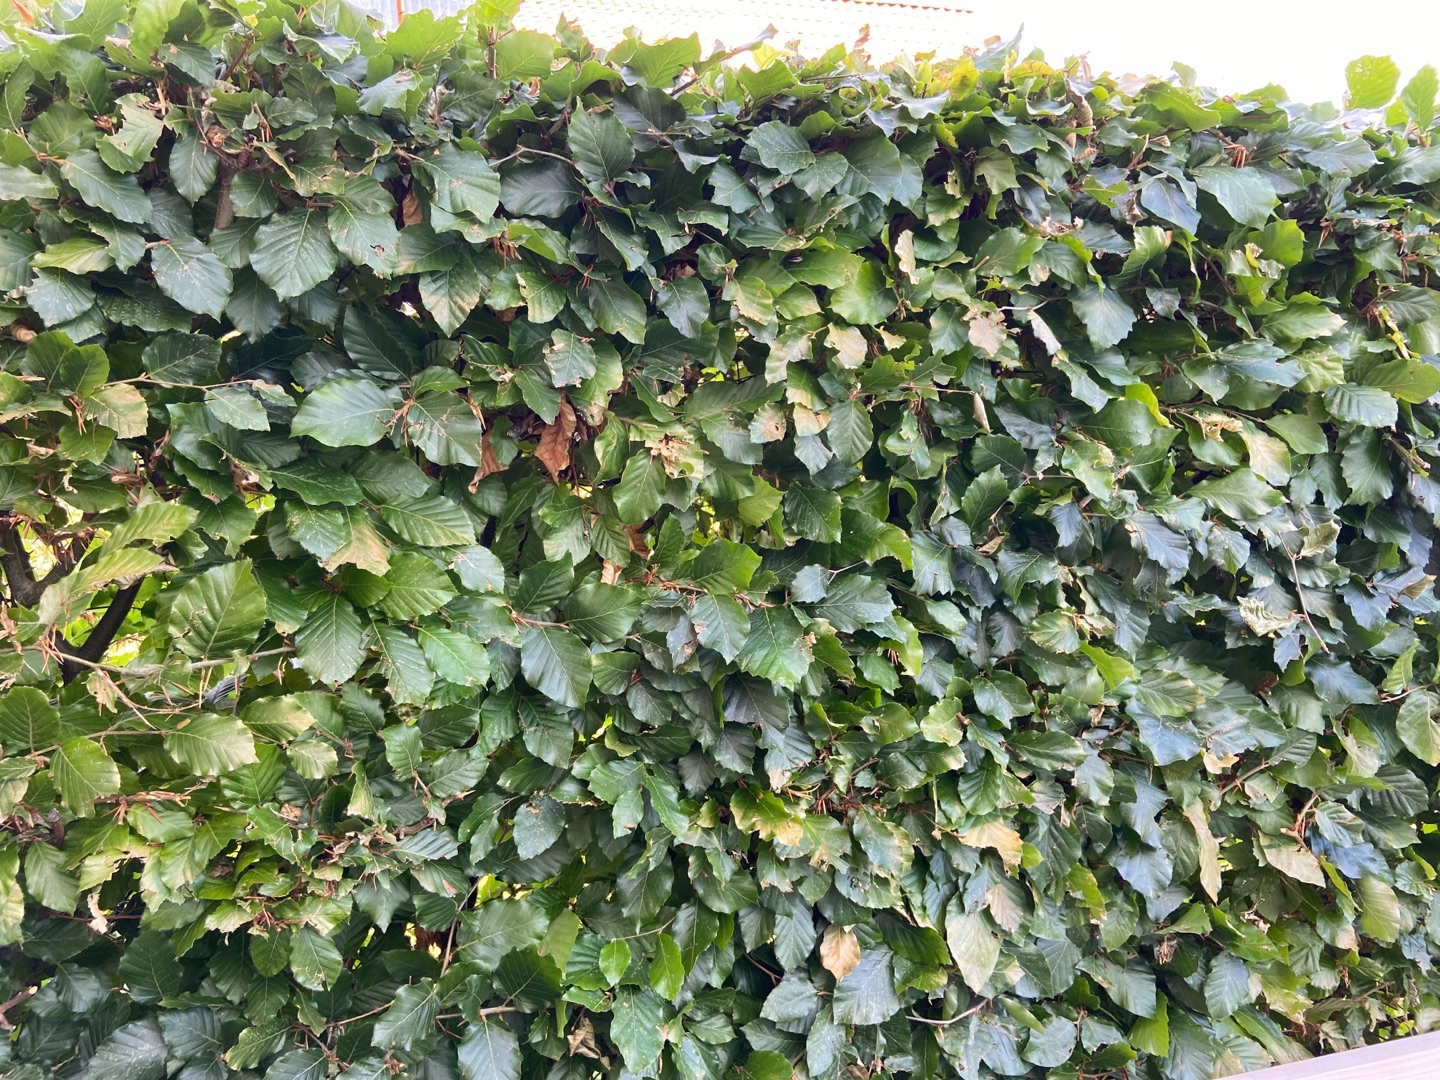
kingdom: Plantae
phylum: Tracheophyta
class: Magnoliopsida
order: Fagales
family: Fagaceae
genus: Fagus
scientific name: Fagus sylvatica
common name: Bøg
